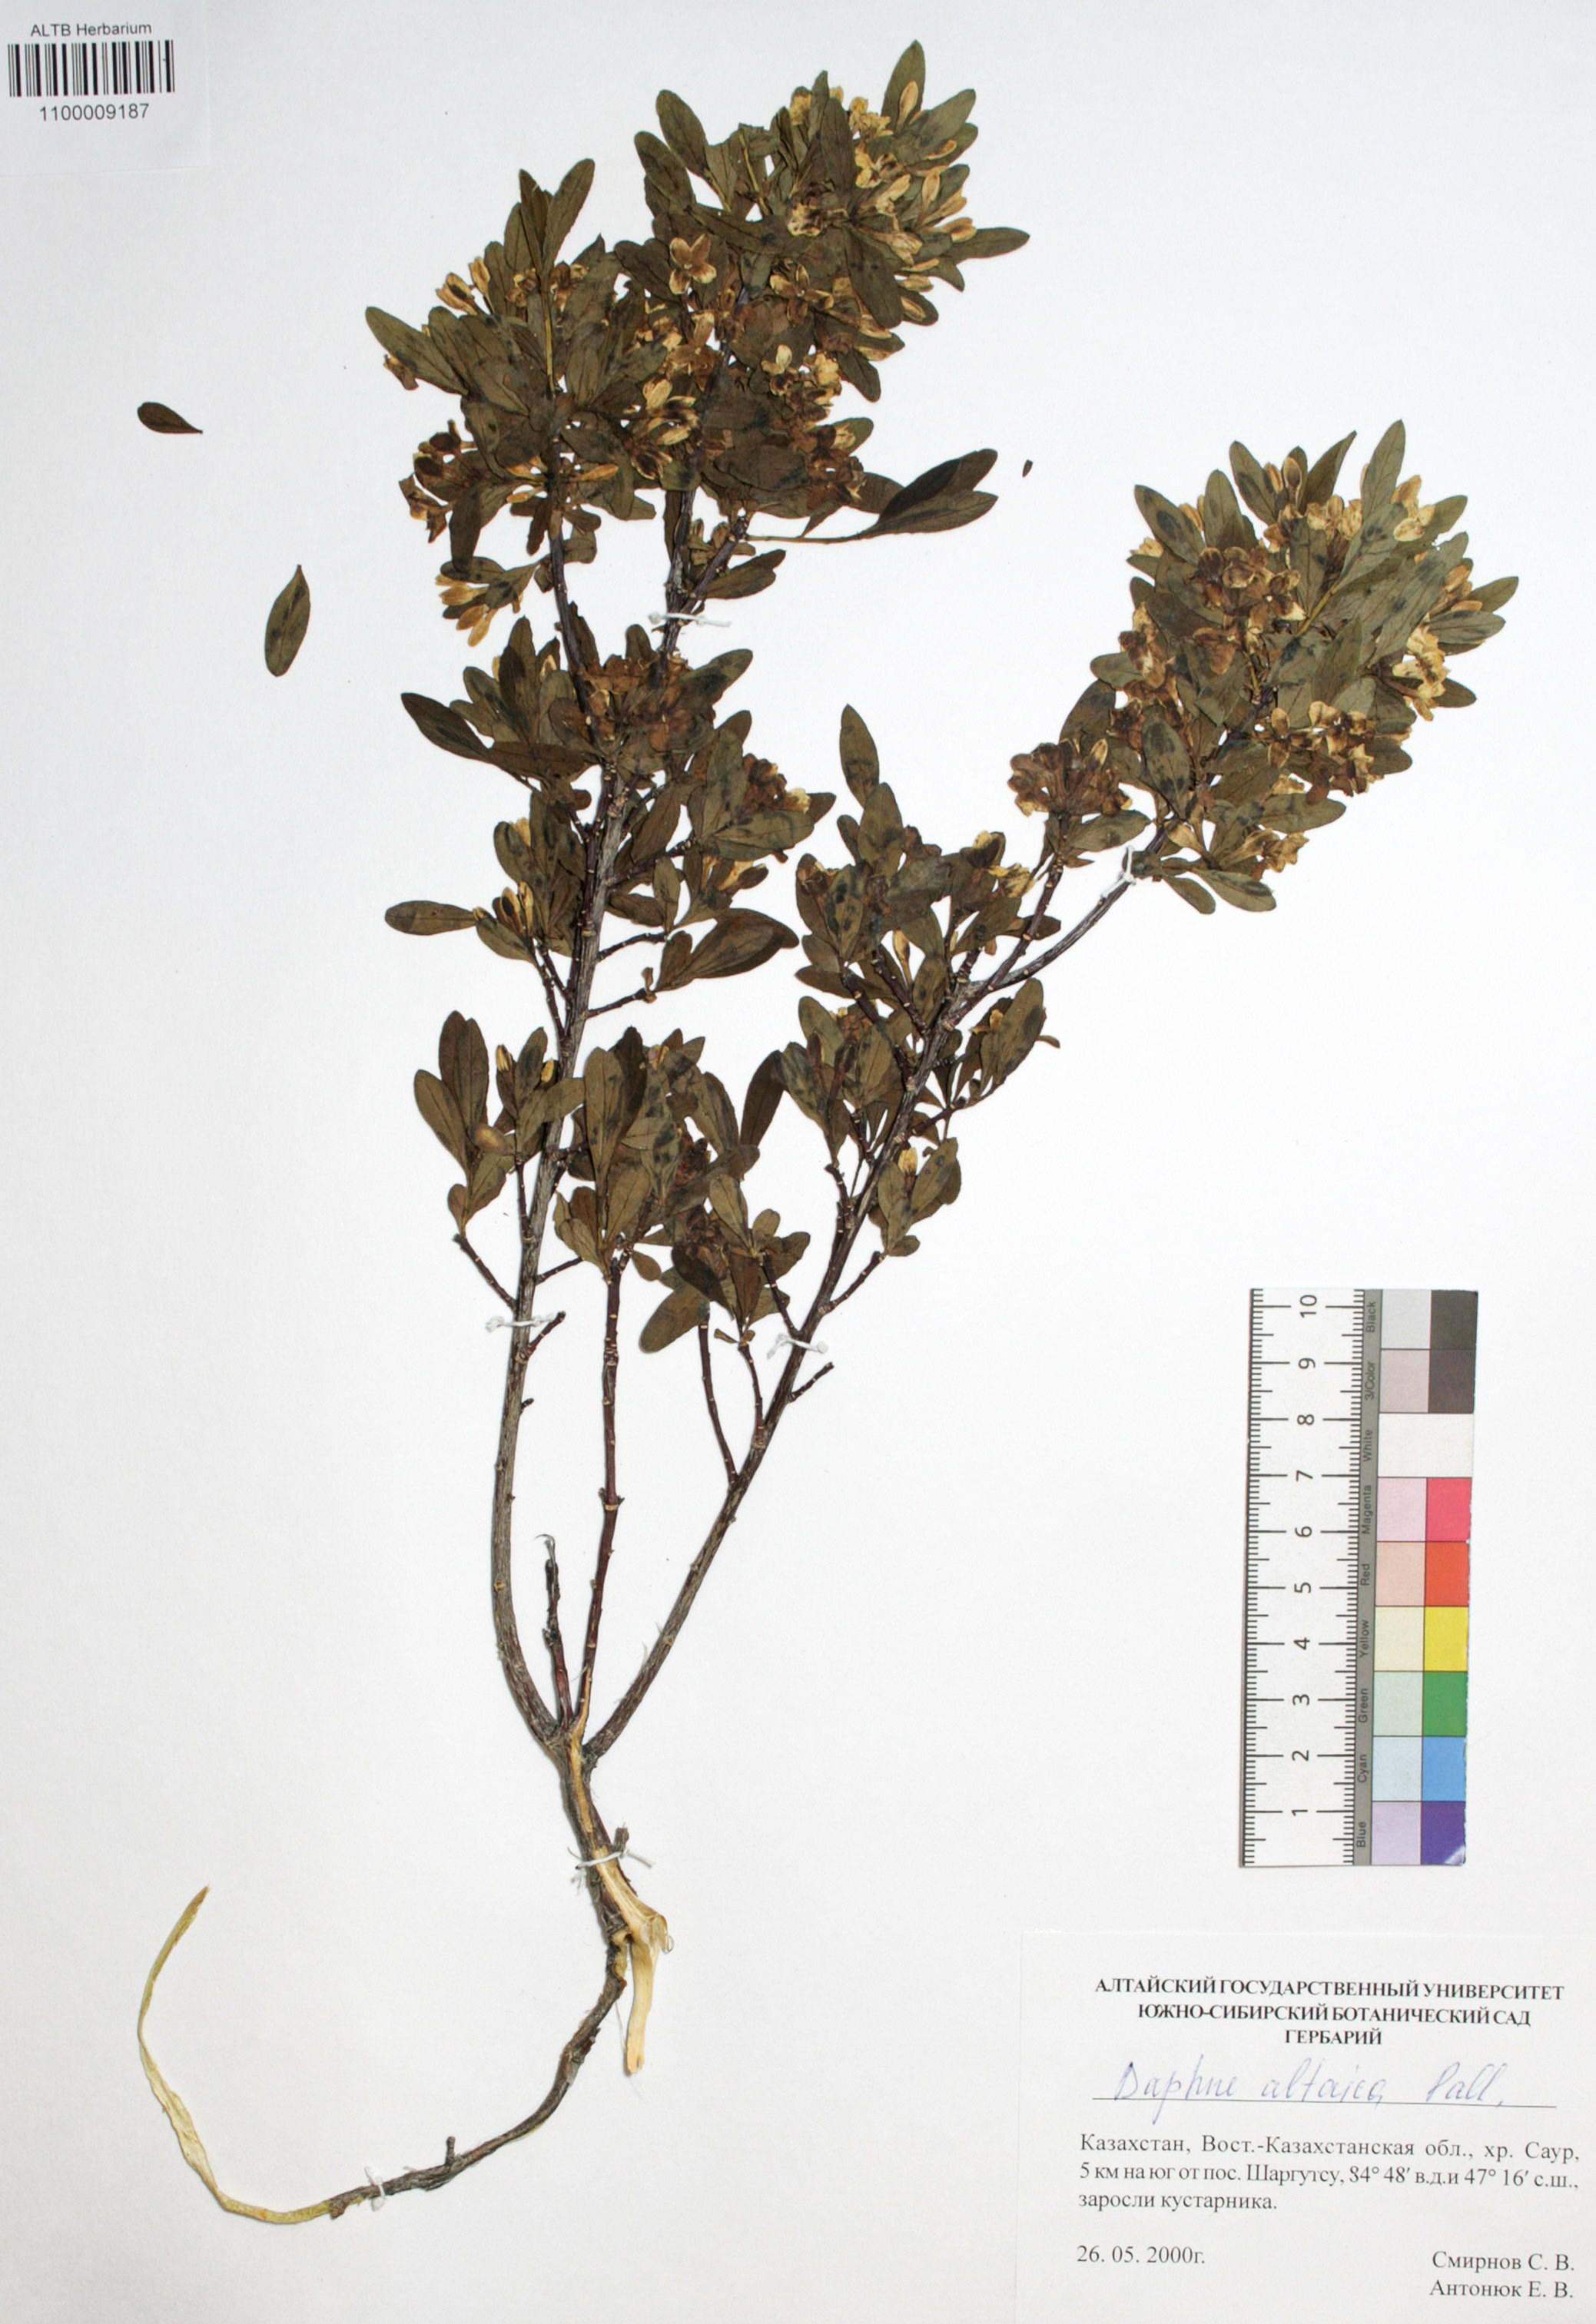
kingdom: Plantae
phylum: Tracheophyta
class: Magnoliopsida
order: Malvales
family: Thymelaeaceae
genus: Daphne
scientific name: Daphne altaica
